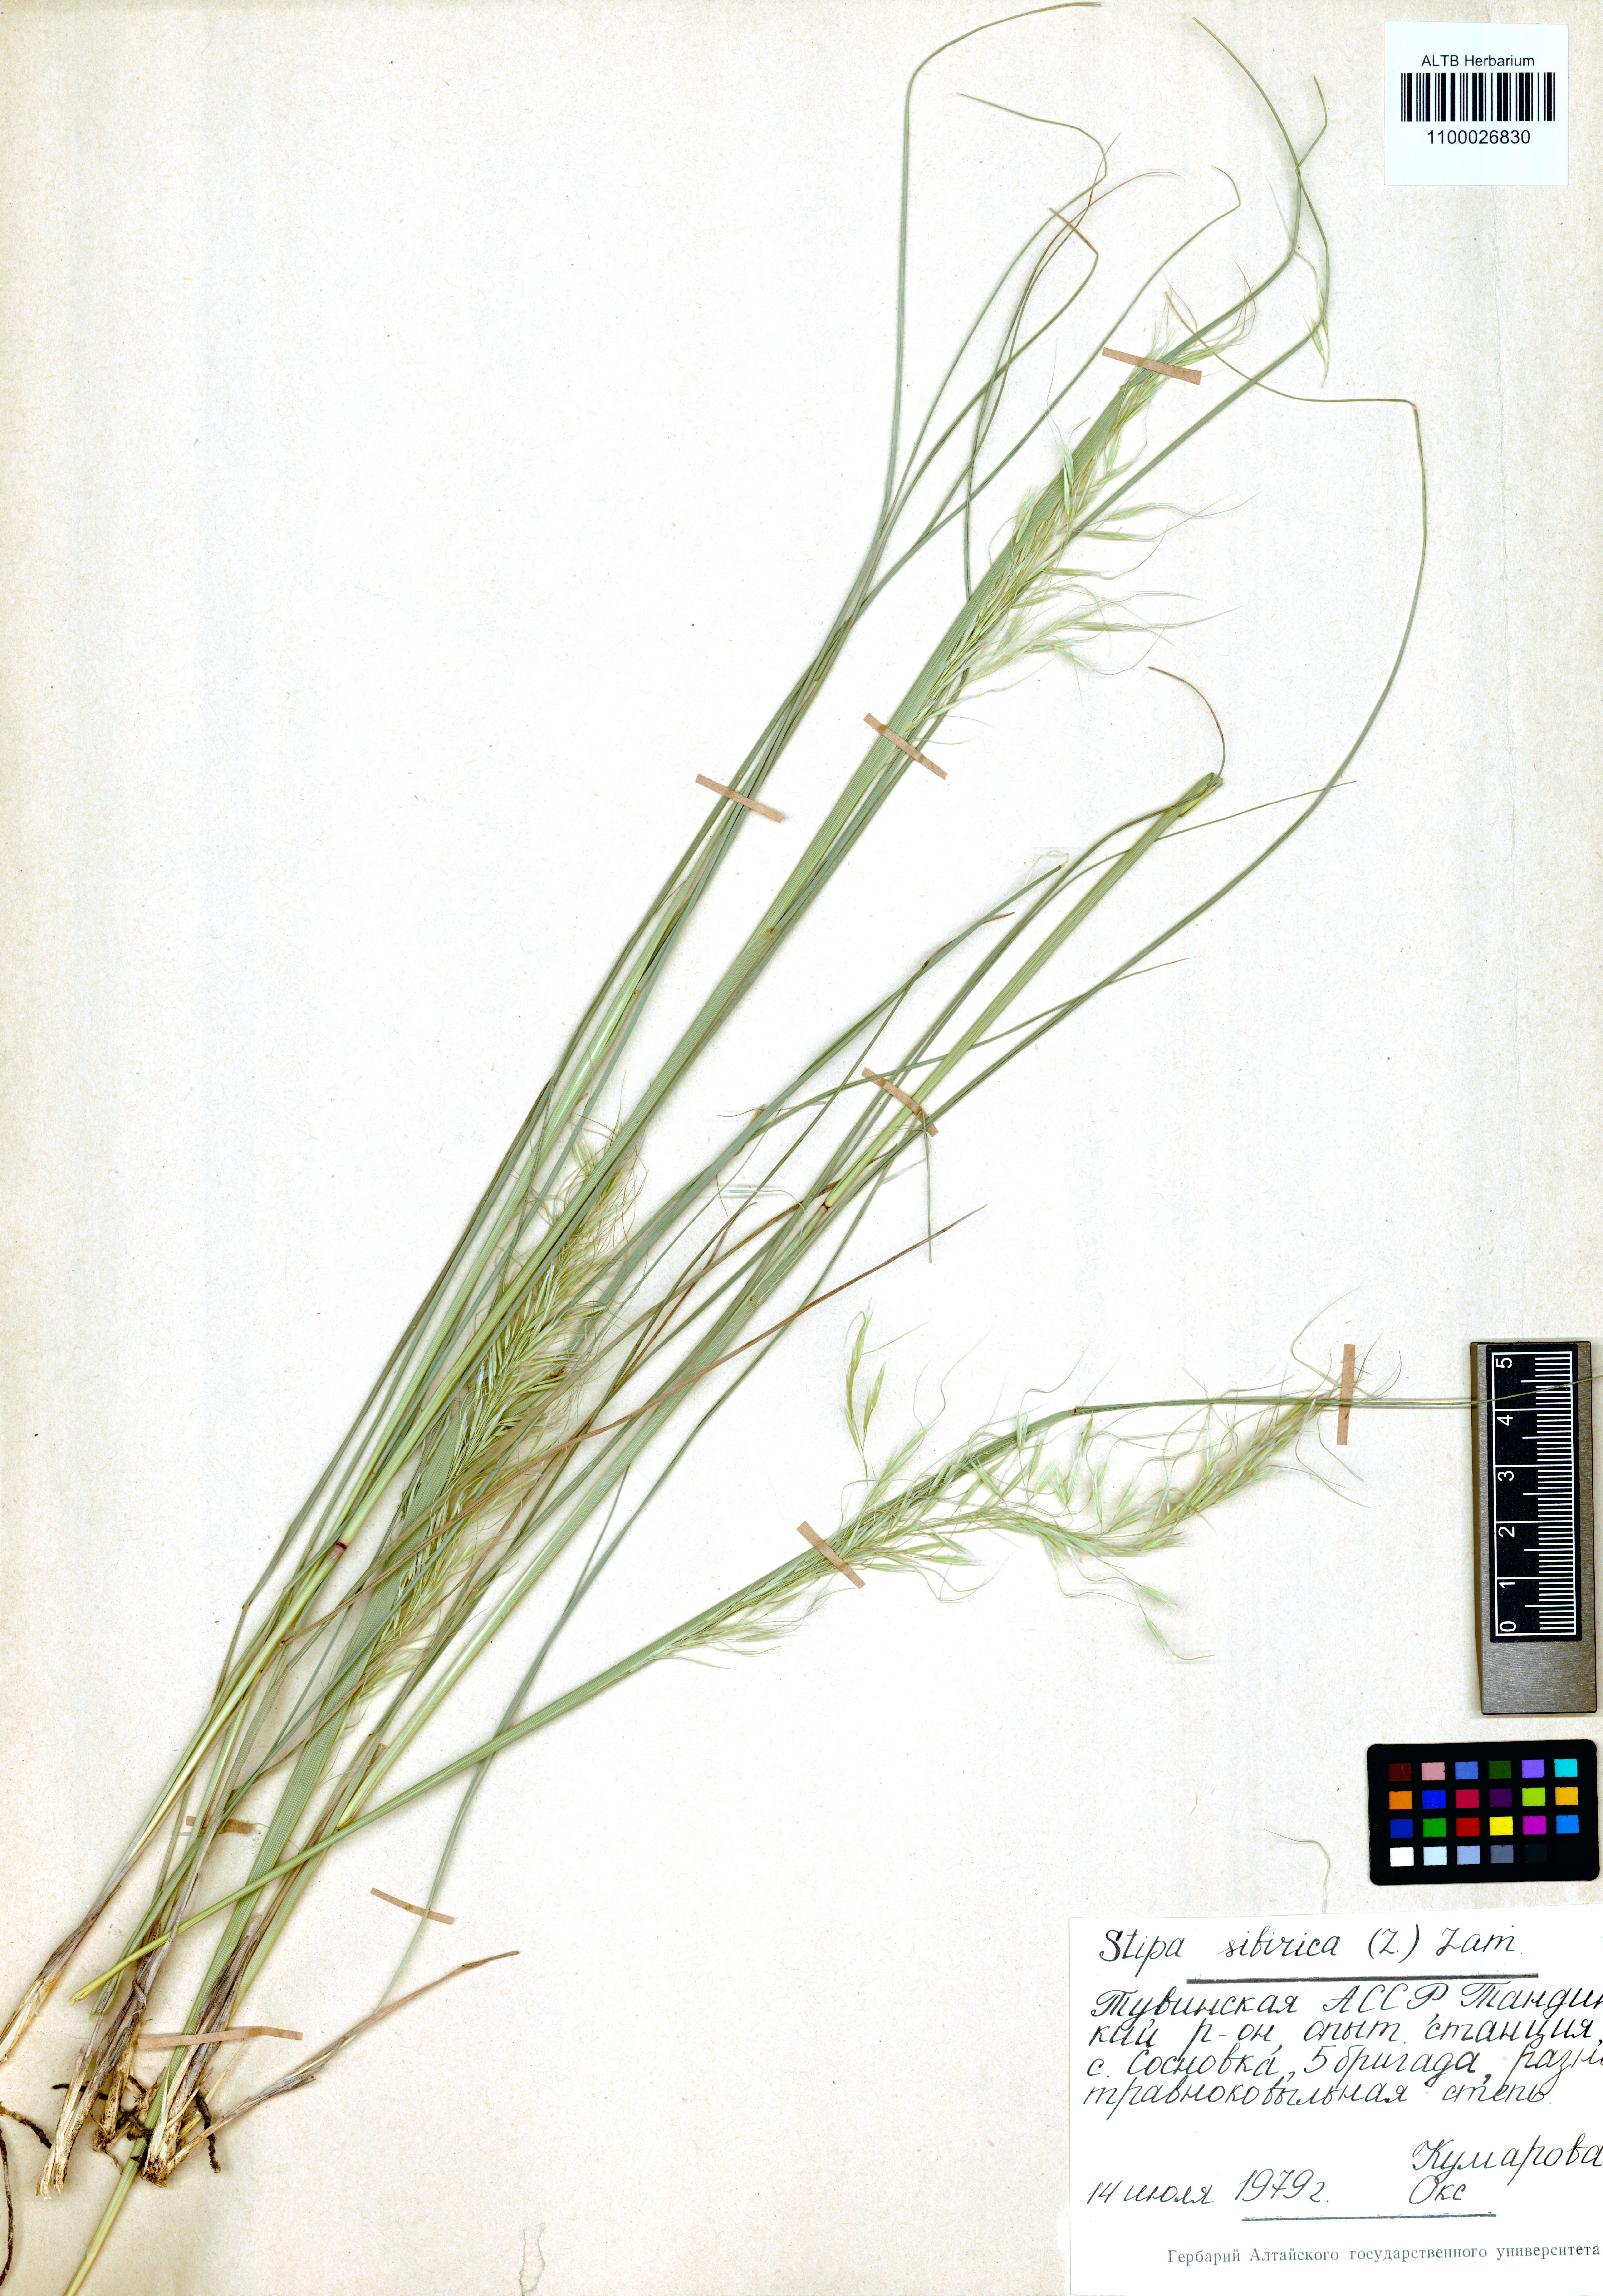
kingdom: Plantae
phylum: Tracheophyta
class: Liliopsida
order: Poales
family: Poaceae
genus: Achnatherum
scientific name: Achnatherum sibiricum
